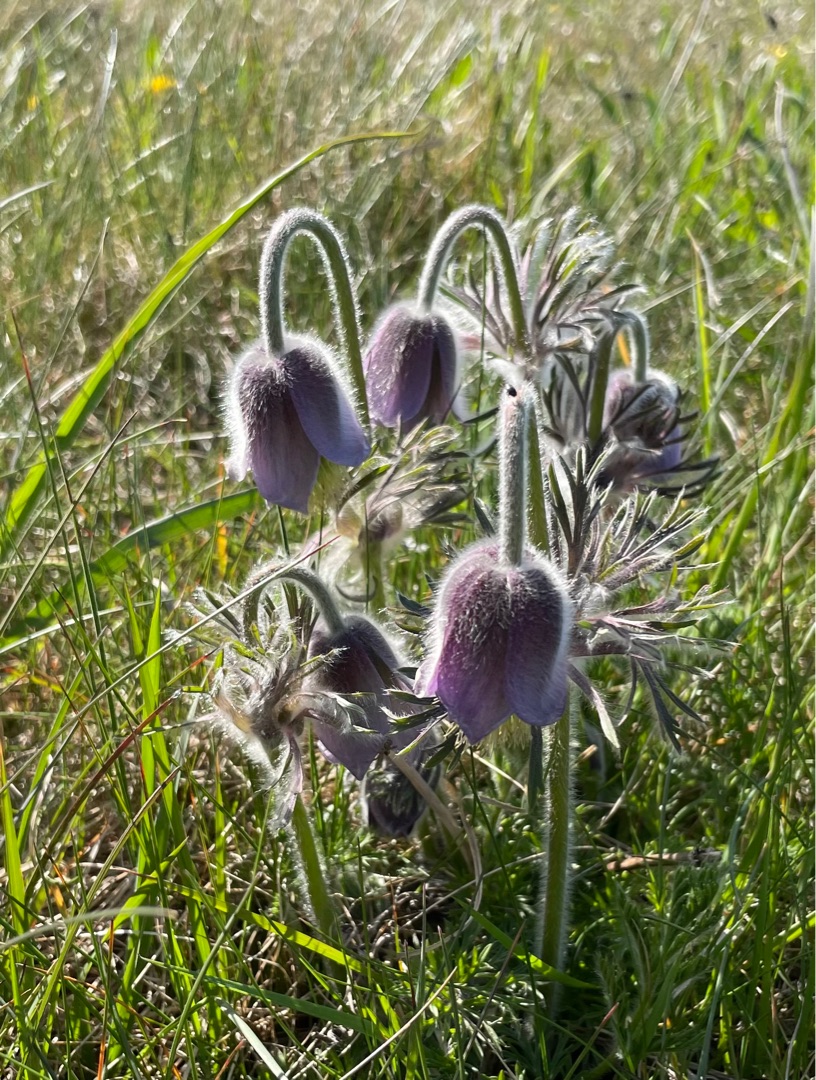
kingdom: Plantae
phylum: Tracheophyta
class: Magnoliopsida
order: Ranunculales
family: Ranunculaceae
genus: Pulsatilla
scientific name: Pulsatilla pratensis
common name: Nikkende kobjælde
